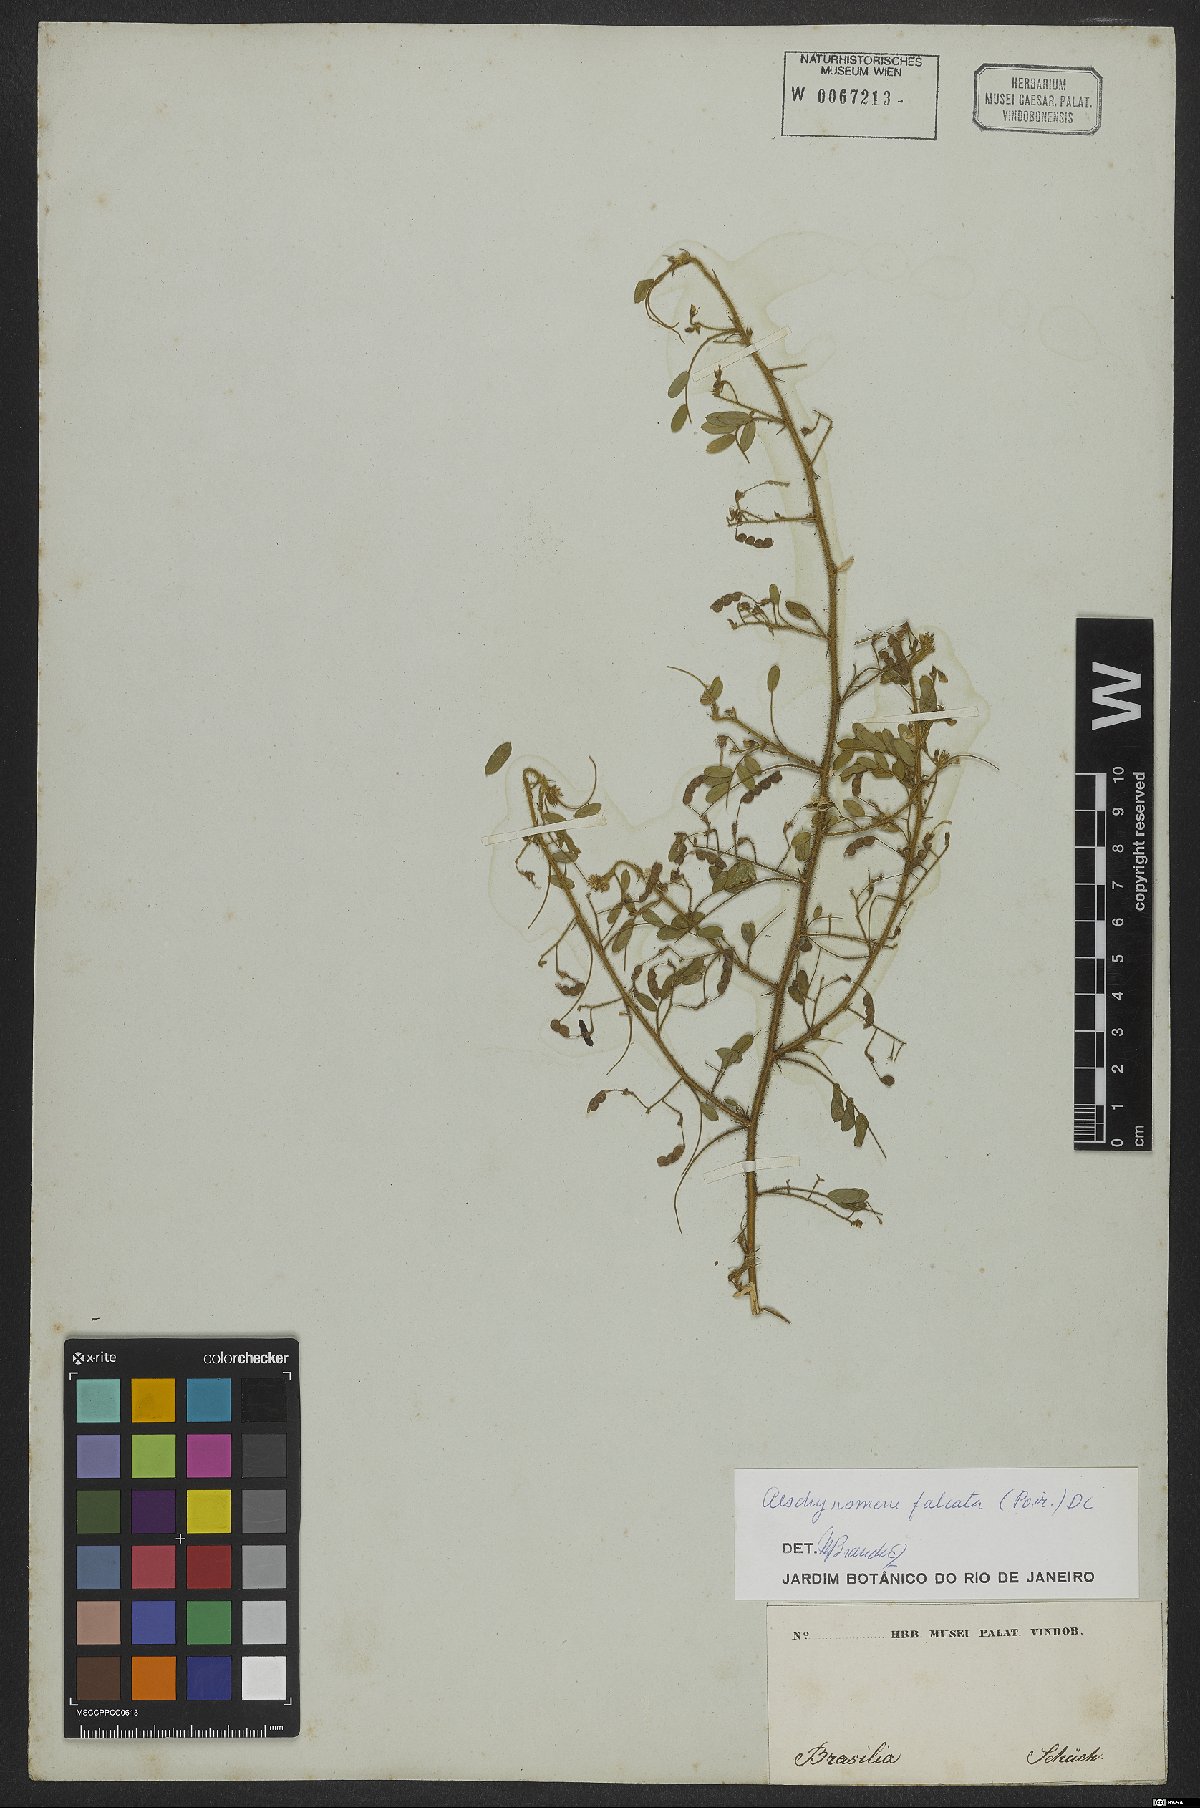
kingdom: Plantae
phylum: Tracheophyta
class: Magnoliopsida
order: Fabales
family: Fabaceae
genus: Ctenodon
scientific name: Ctenodon falcatus
